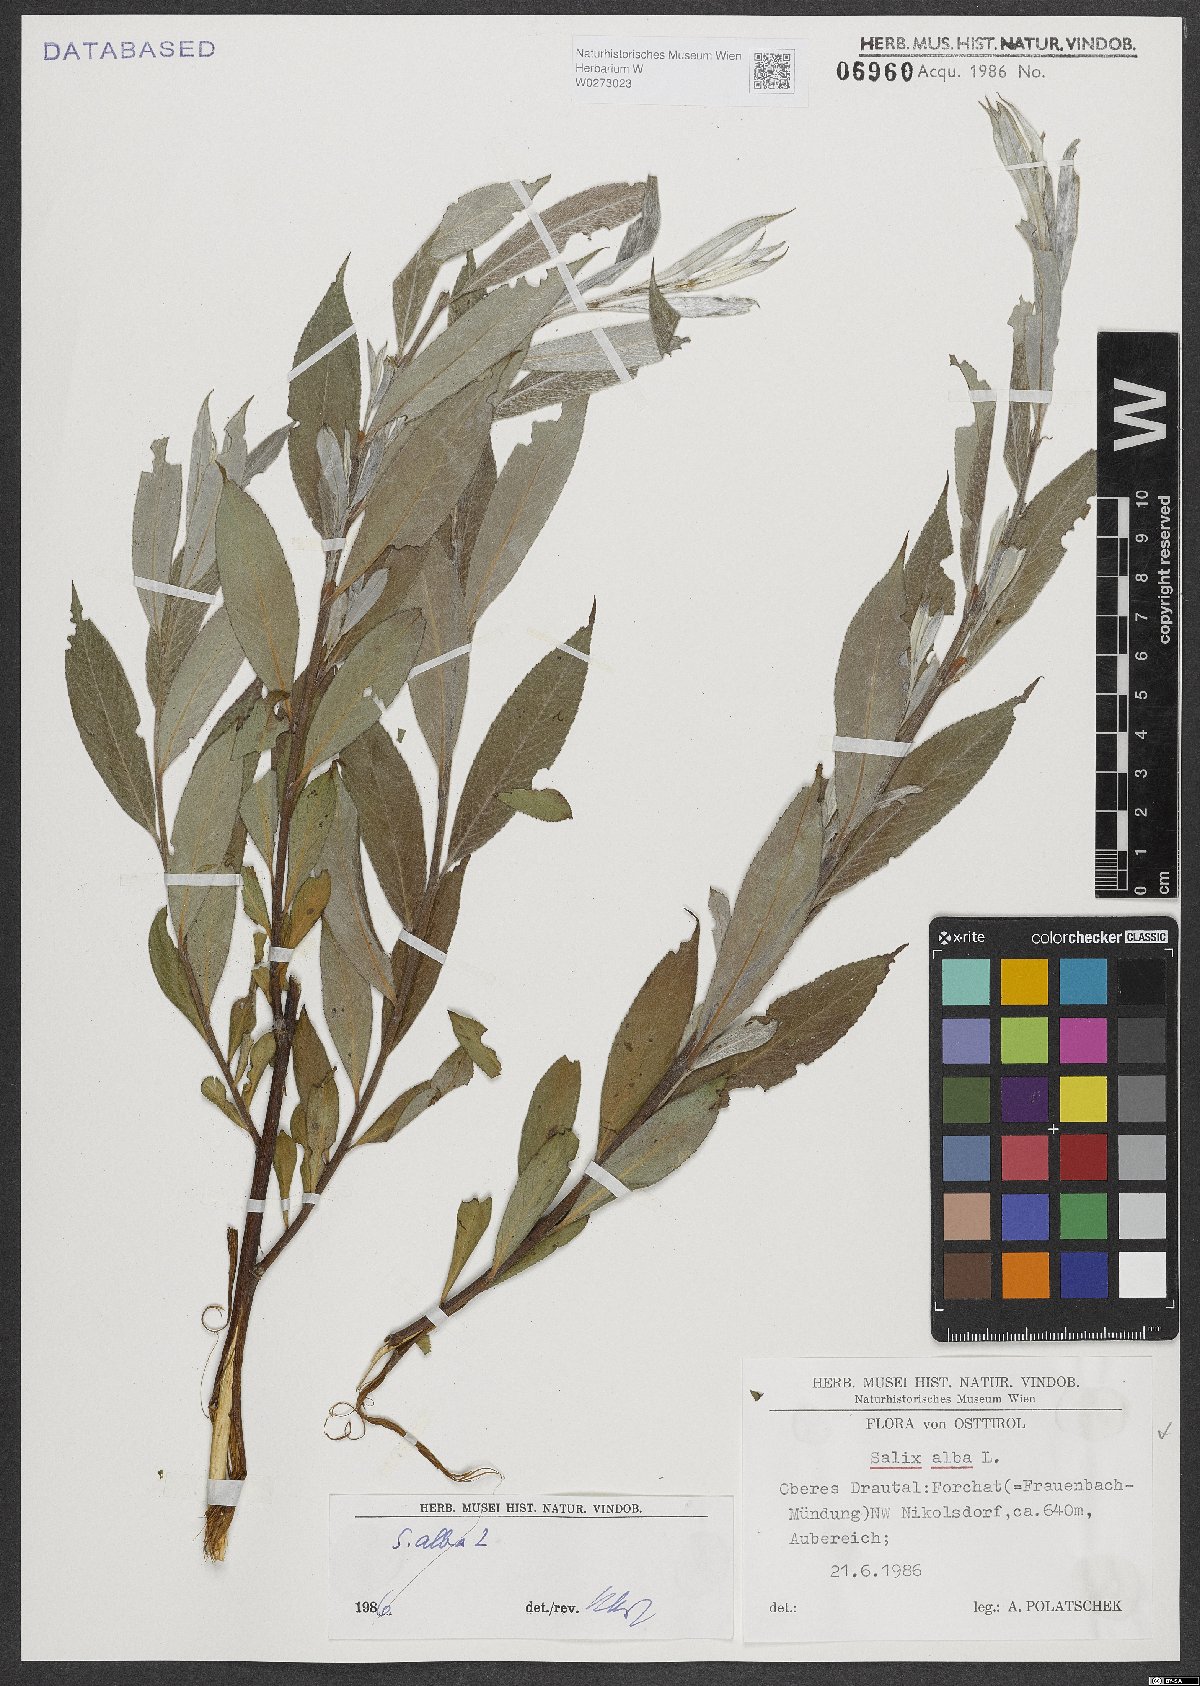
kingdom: Plantae
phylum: Tracheophyta
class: Magnoliopsida
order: Malpighiales
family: Salicaceae
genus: Salix
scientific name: Salix alba
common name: White willow
